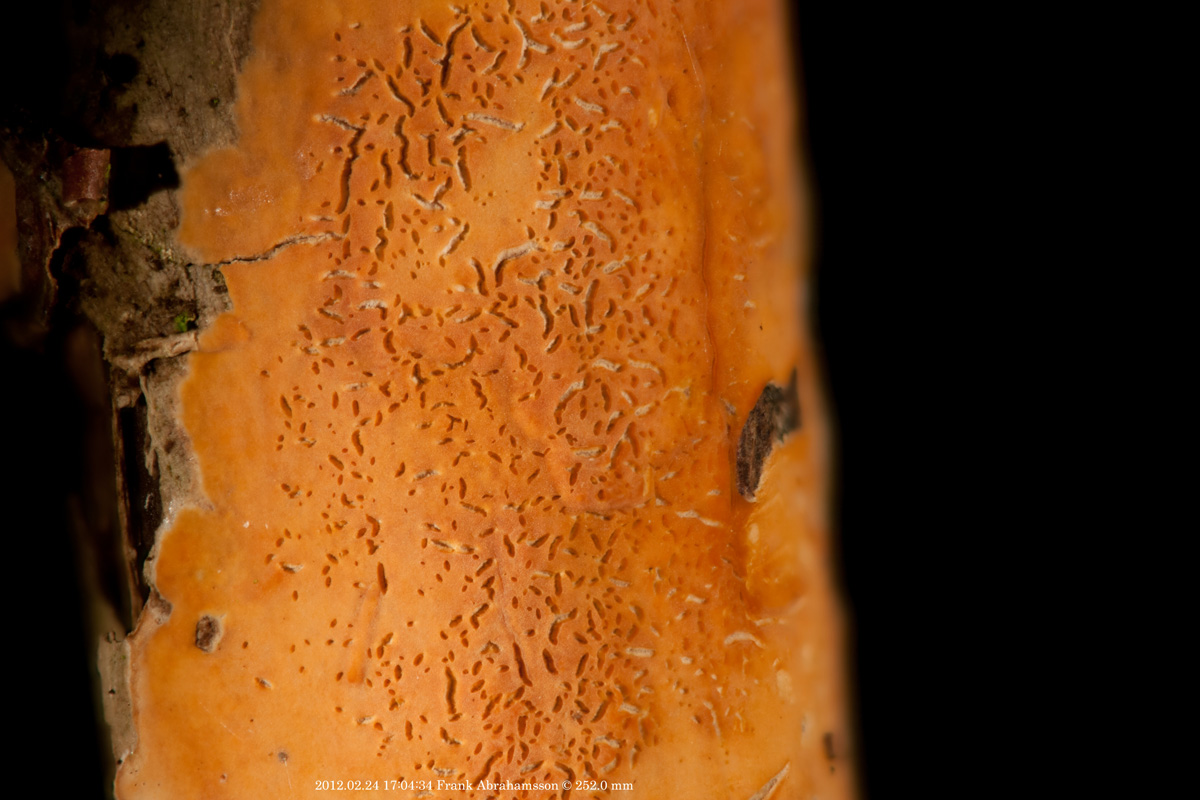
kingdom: Fungi
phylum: Basidiomycota
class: Agaricomycetes
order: Russulales
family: Peniophoraceae
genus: Peniophora
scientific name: Peniophora incarnata
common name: laksefarvet voksskind
